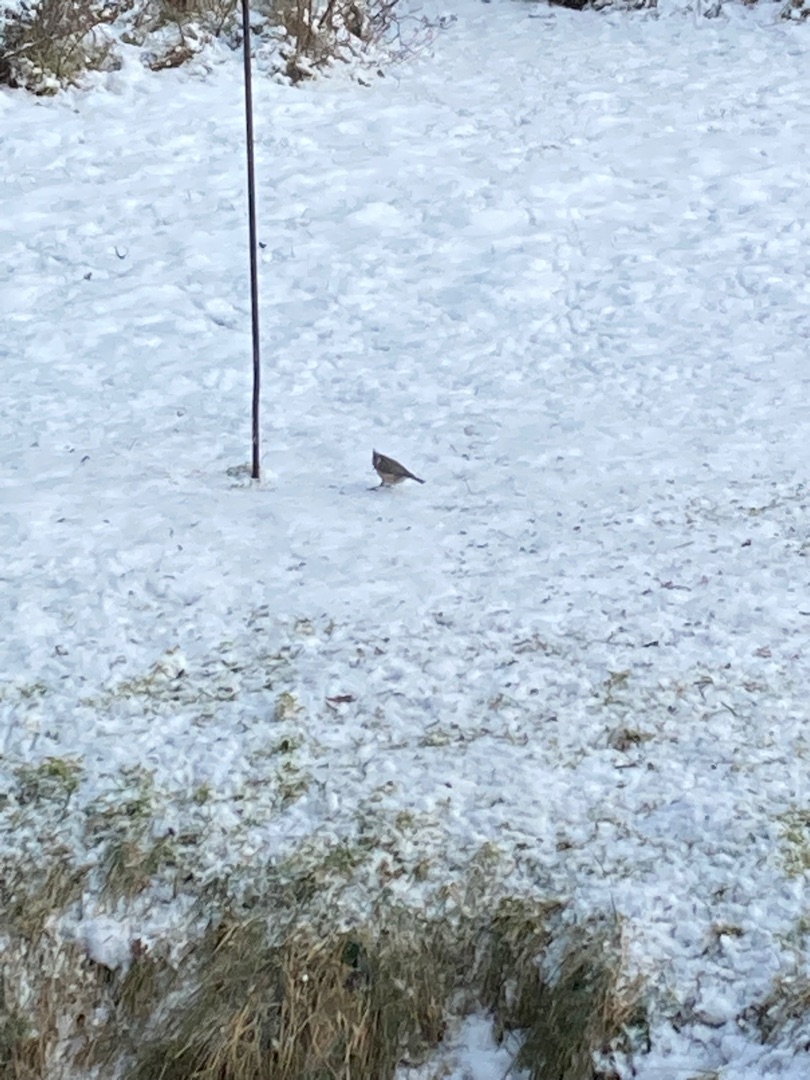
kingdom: Animalia
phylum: Chordata
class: Aves
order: Passeriformes
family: Paridae
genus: Lophophanes
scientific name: Lophophanes cristatus
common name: Topmejse
